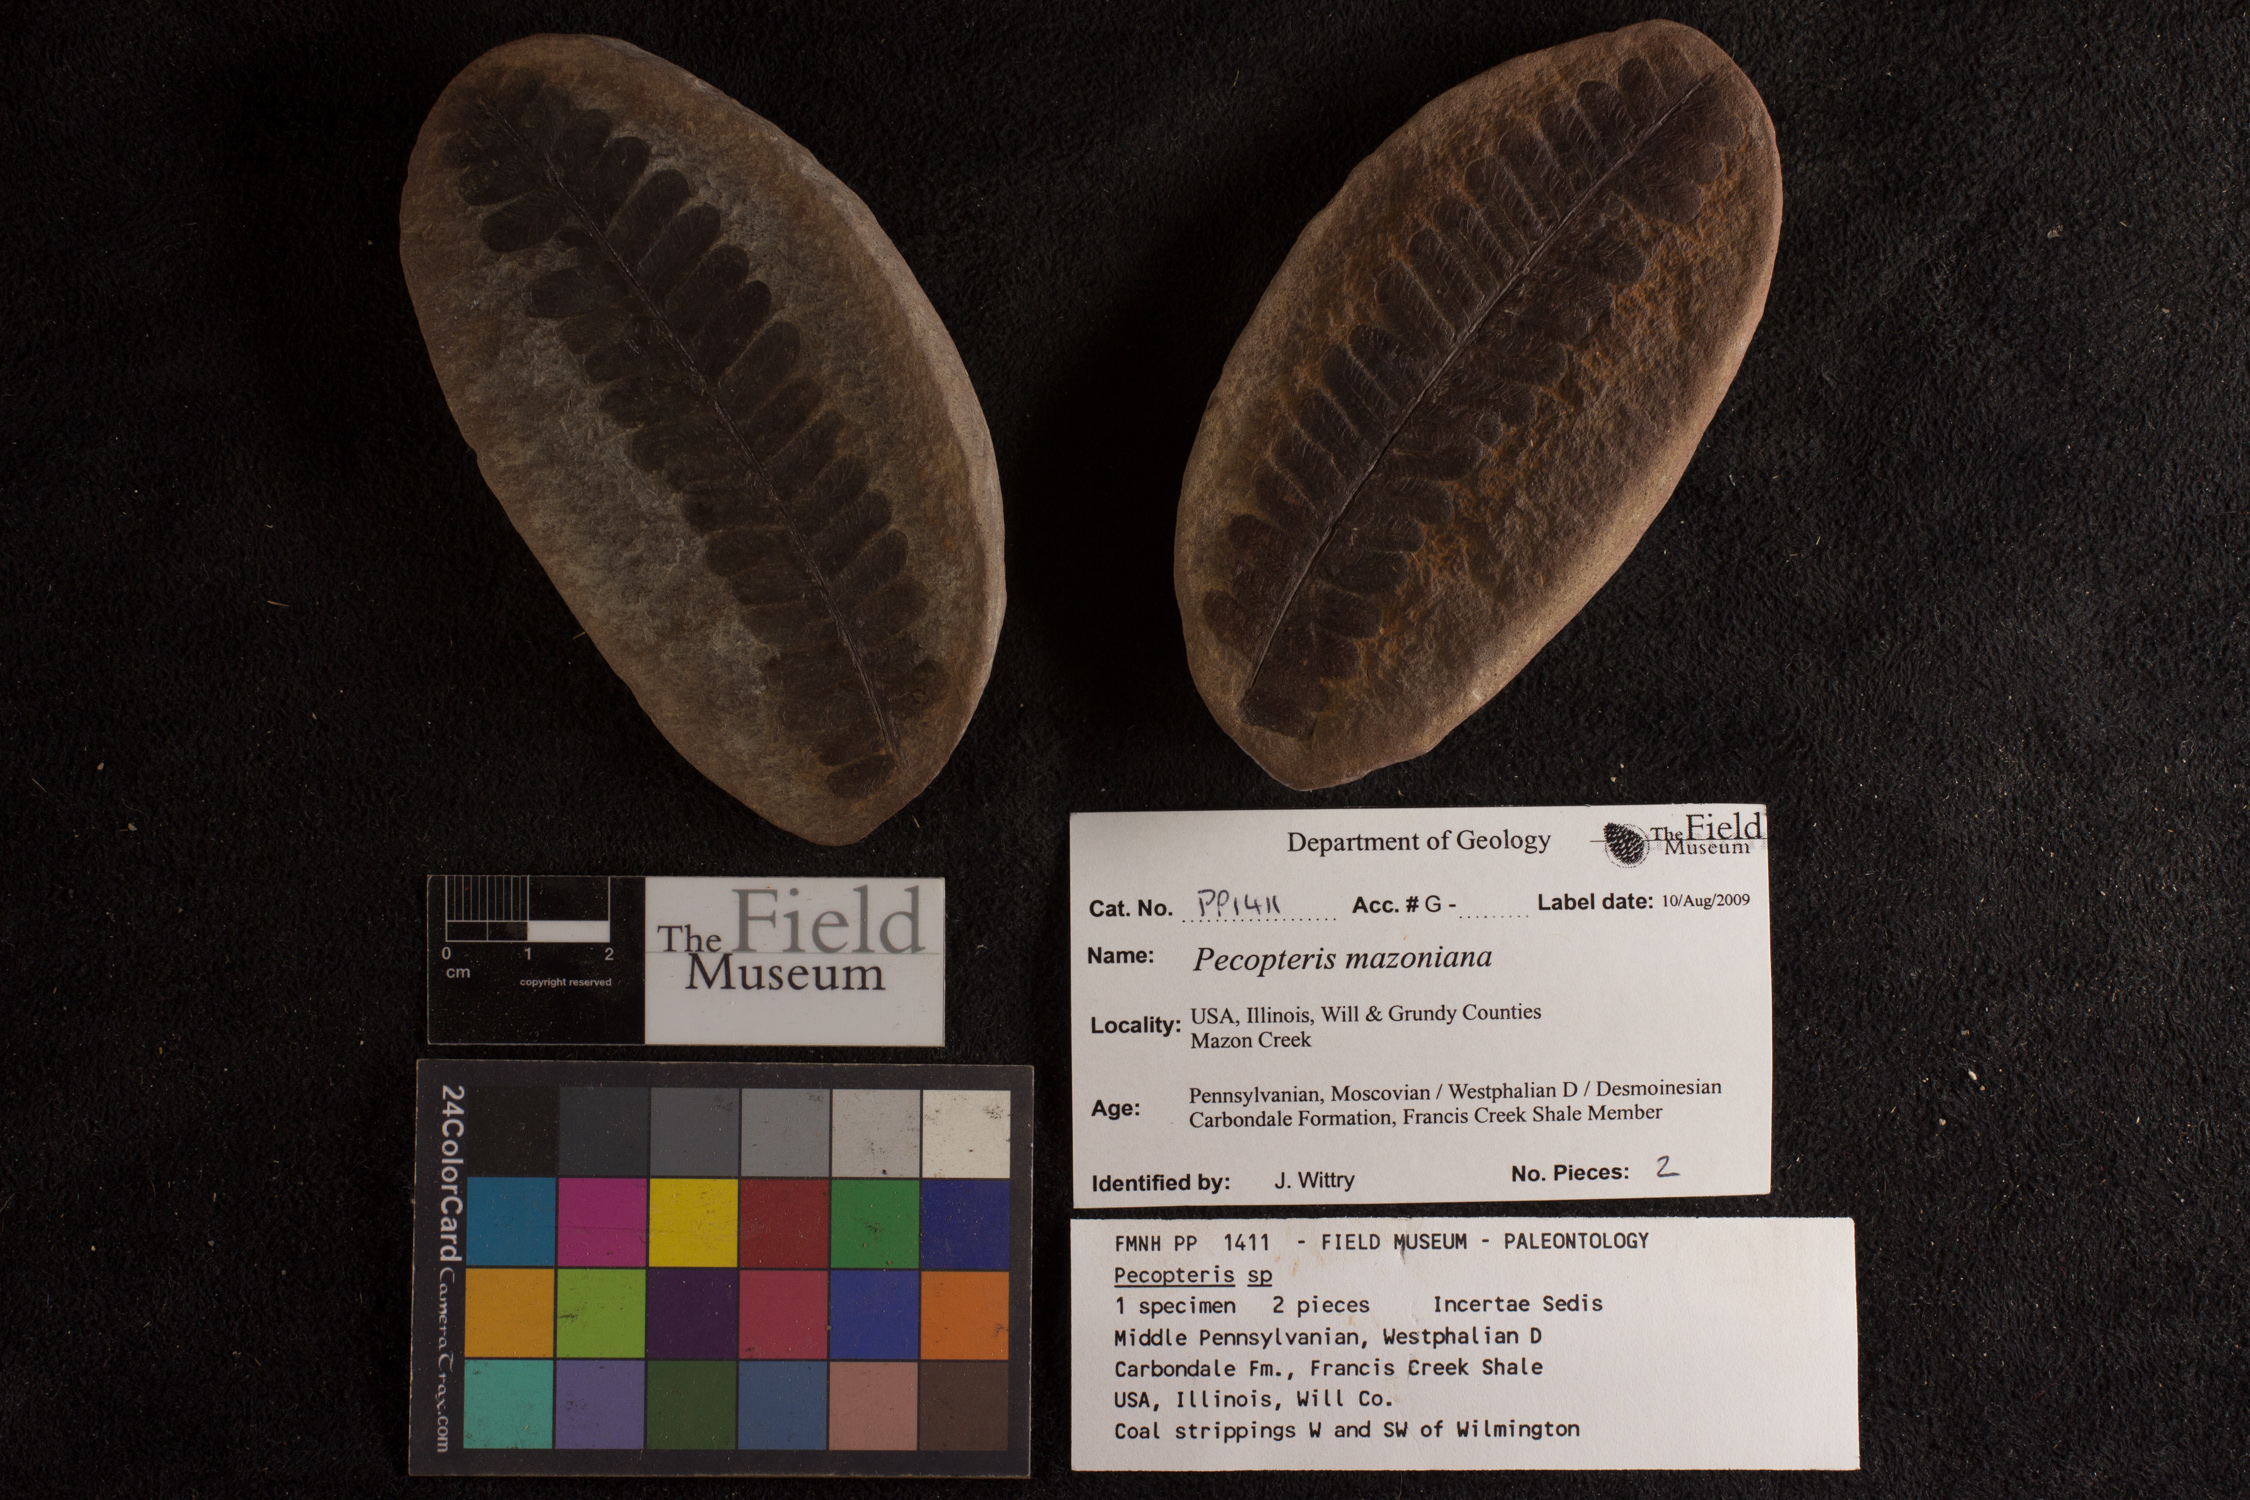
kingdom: Plantae
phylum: Tracheophyta
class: Polypodiopsida
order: Marattiales
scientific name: Marattiales
